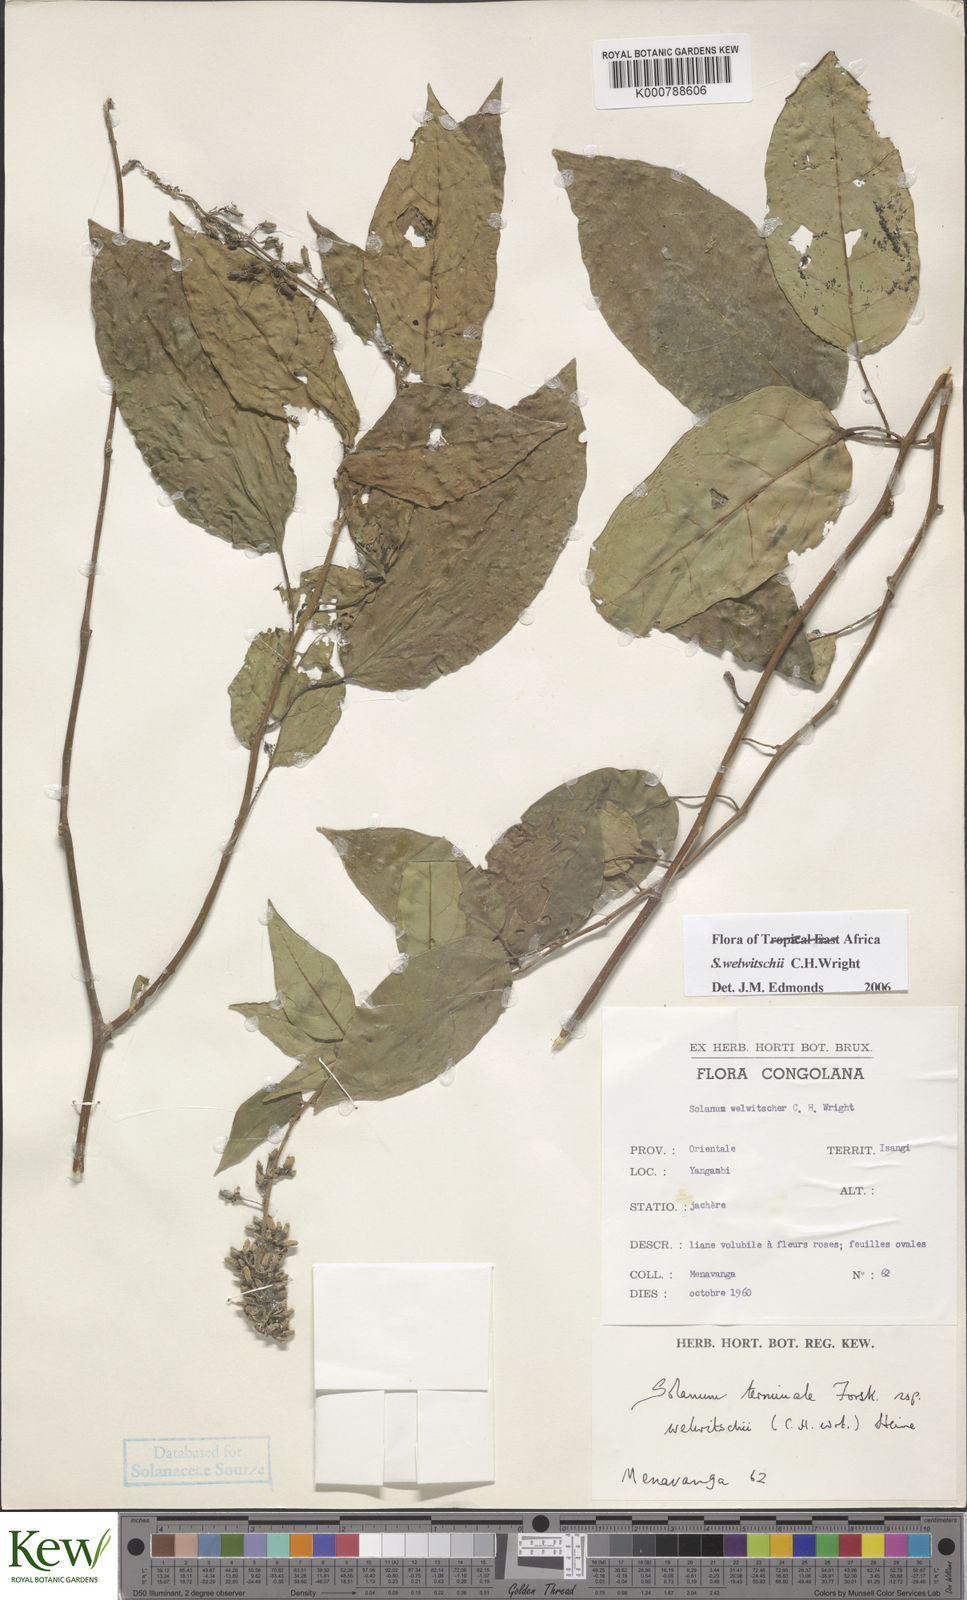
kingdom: Plantae
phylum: Tracheophyta
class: Magnoliopsida
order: Solanales
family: Solanaceae
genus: Solanum
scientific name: Solanum terminale
